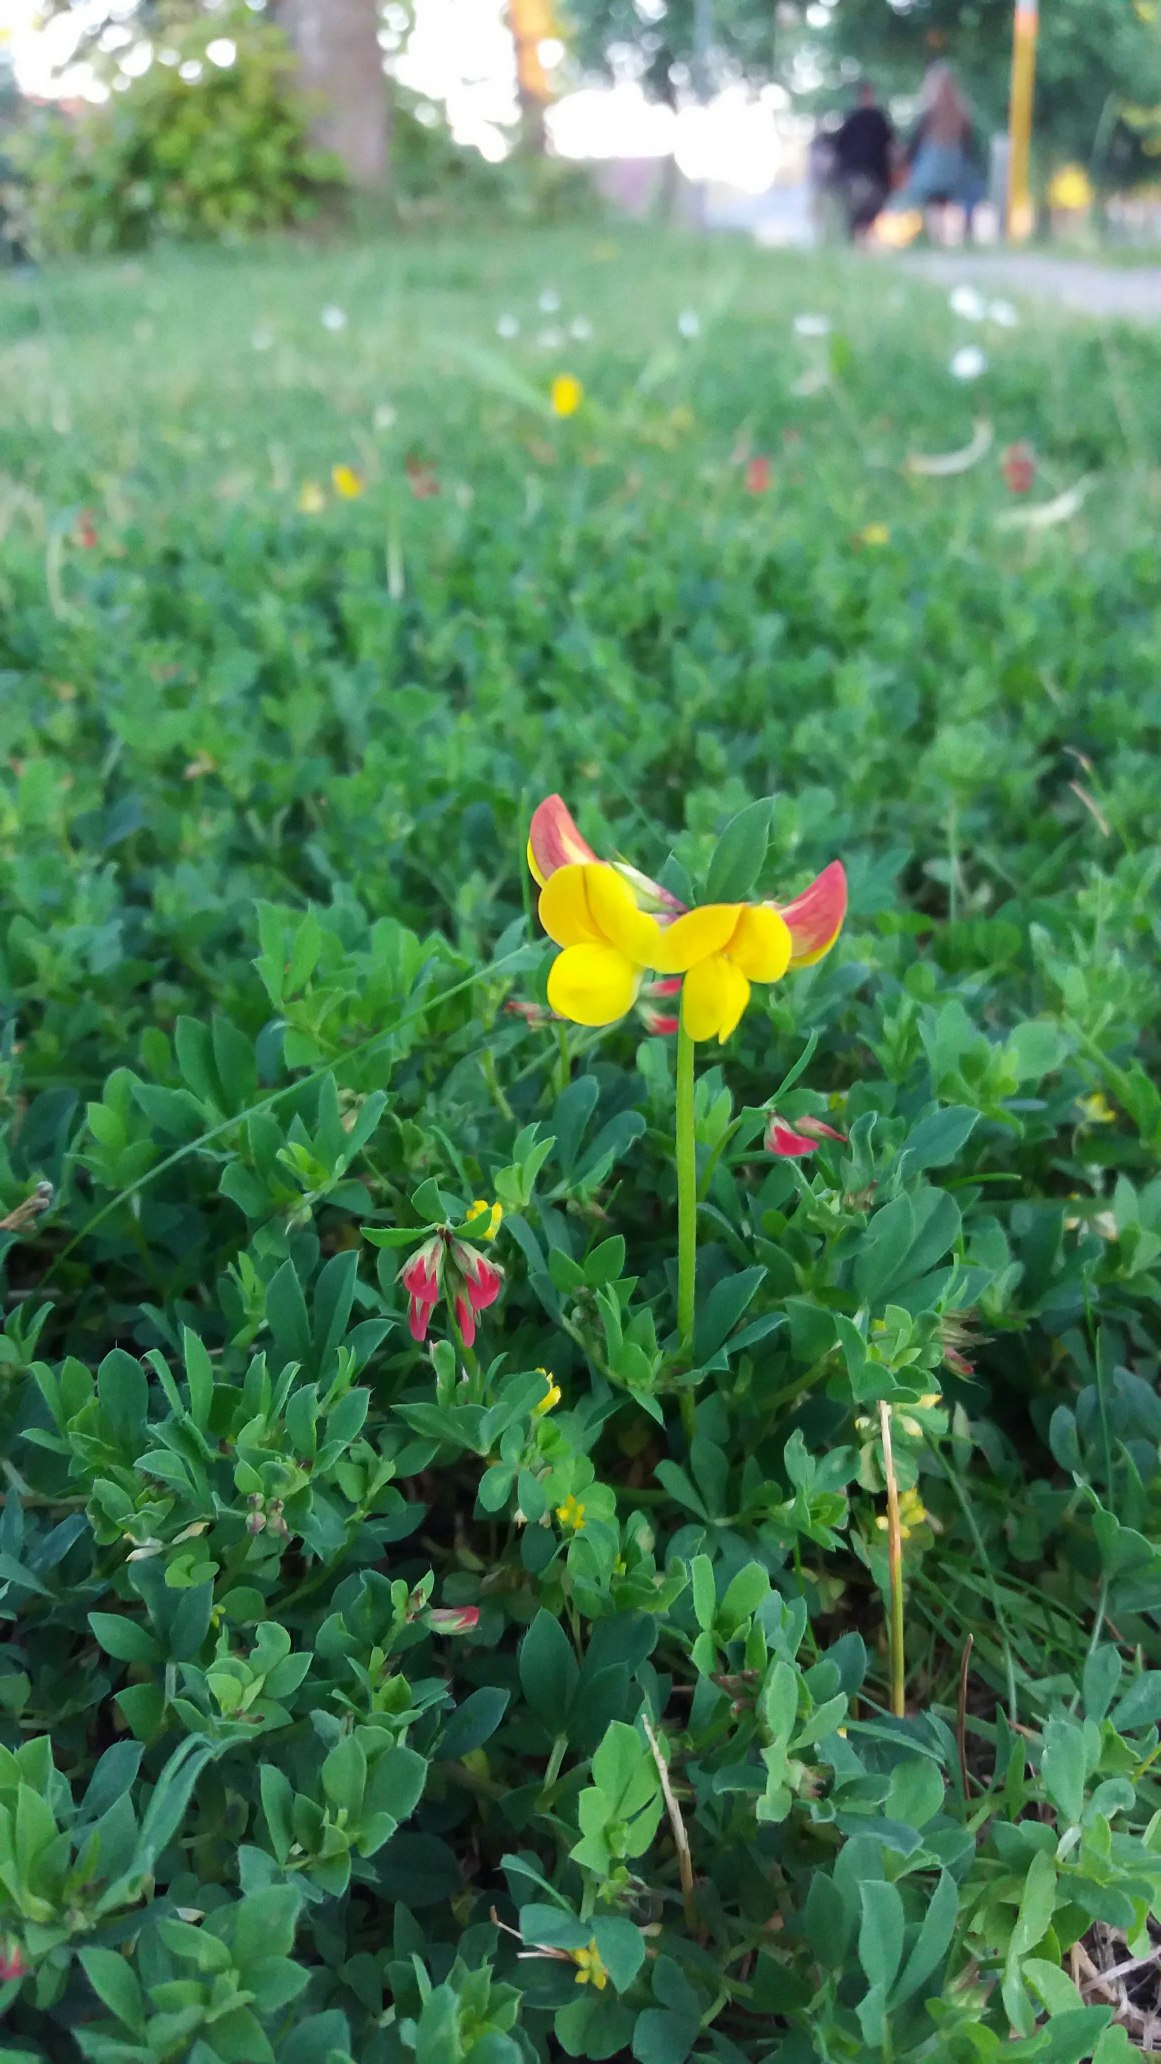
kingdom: Plantae
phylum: Tracheophyta
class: Magnoliopsida
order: Fabales
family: Fabaceae
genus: Lotus
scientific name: Lotus corniculatus
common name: Almindelig kællingetand
